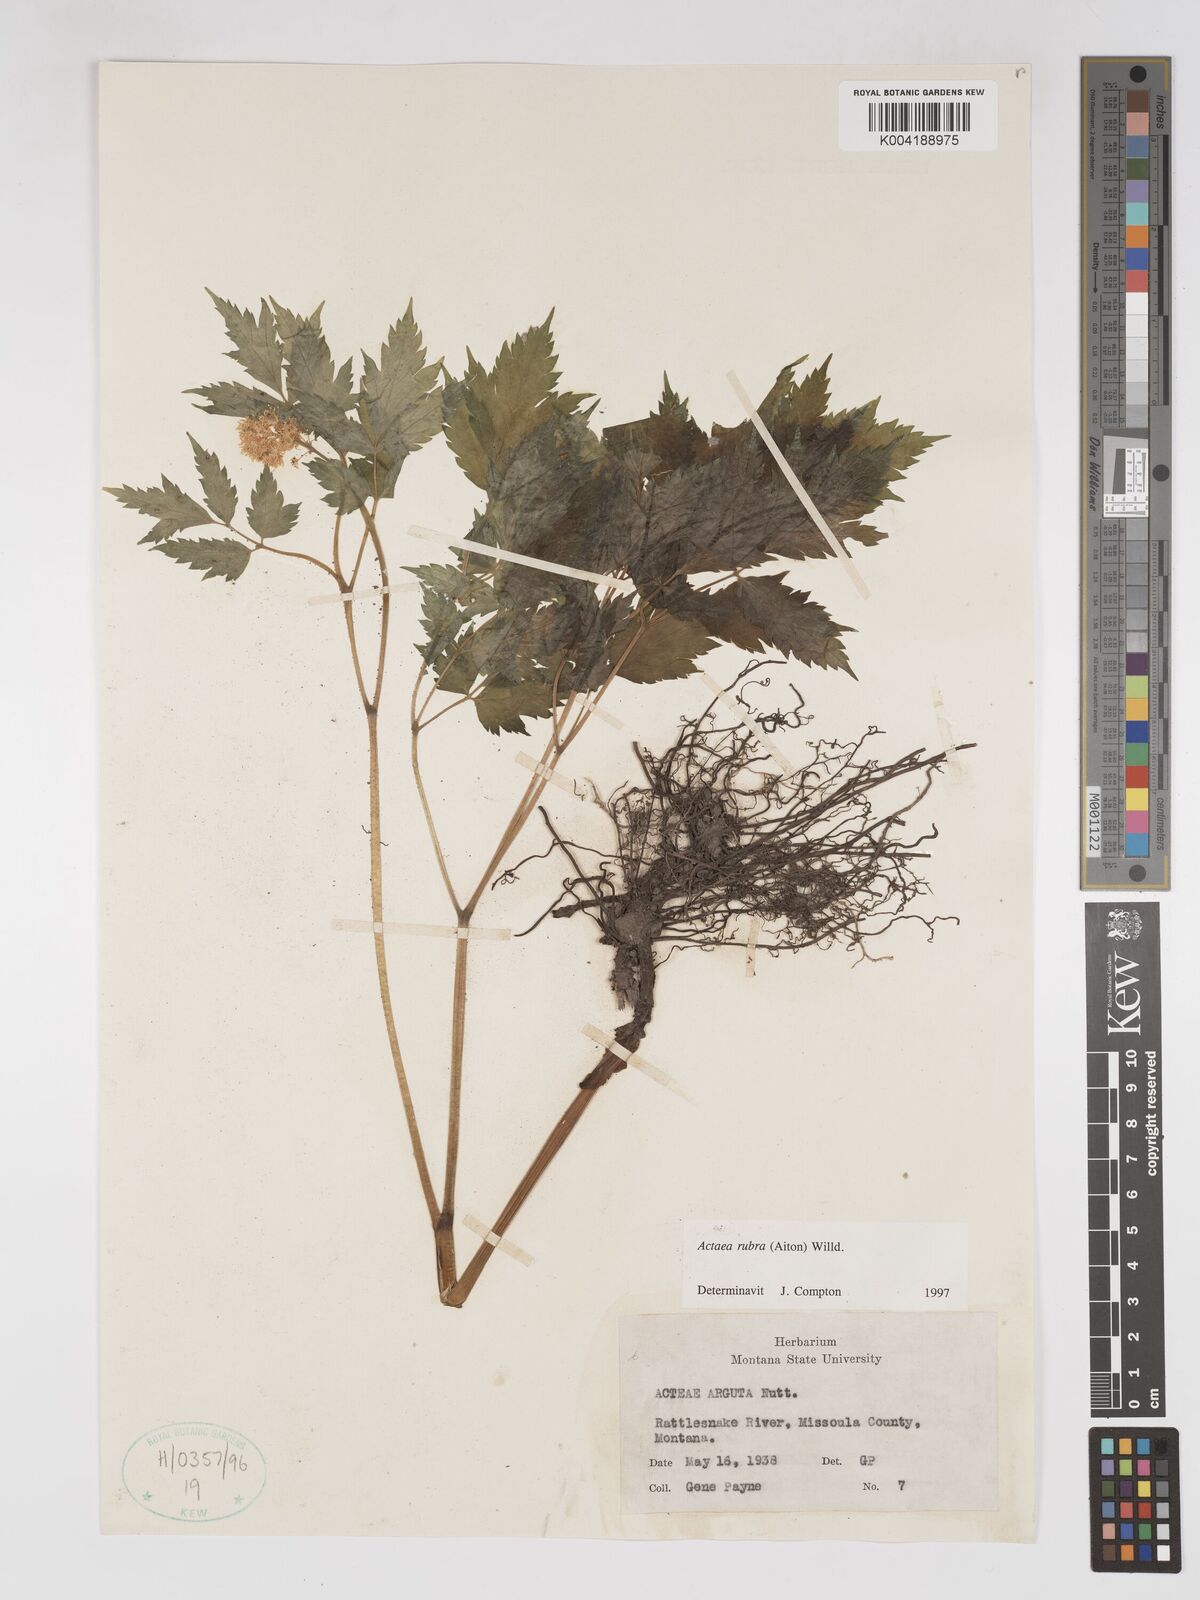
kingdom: Plantae
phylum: Tracheophyta
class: Magnoliopsida
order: Ranunculales
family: Ranunculaceae
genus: Actaea
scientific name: Actaea rubra
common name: Red baneberry
